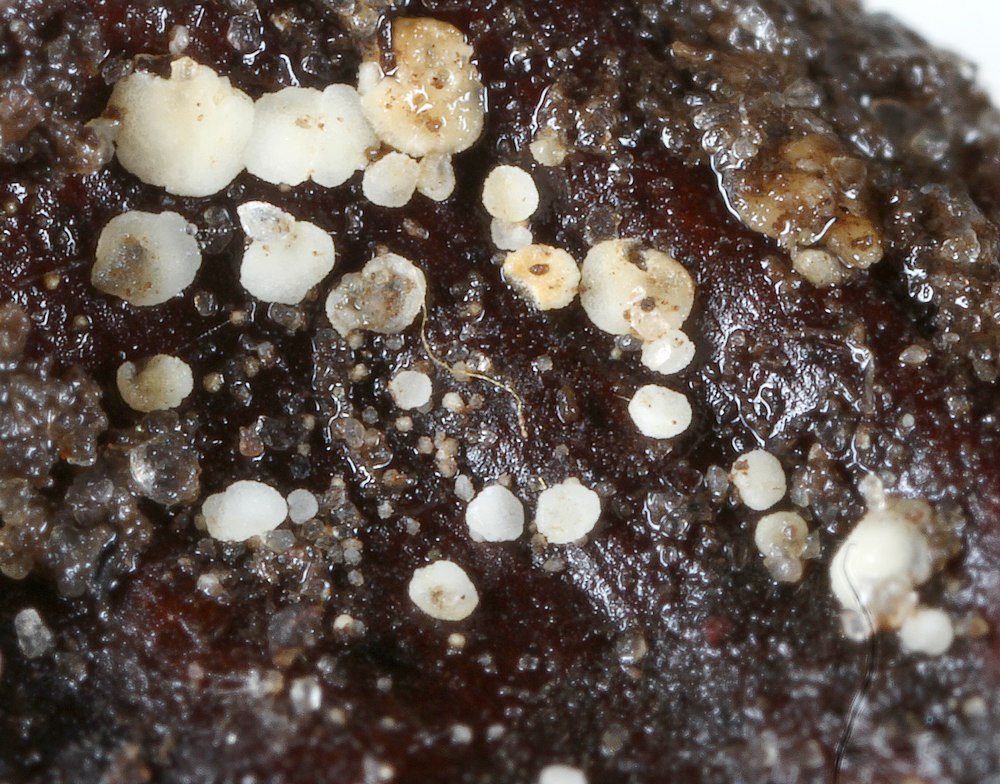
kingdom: Fungi
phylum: Ascomycota
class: Leotiomycetes
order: Helotiales
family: Dermateaceae
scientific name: Dermateaceae
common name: gråskivefamilien
